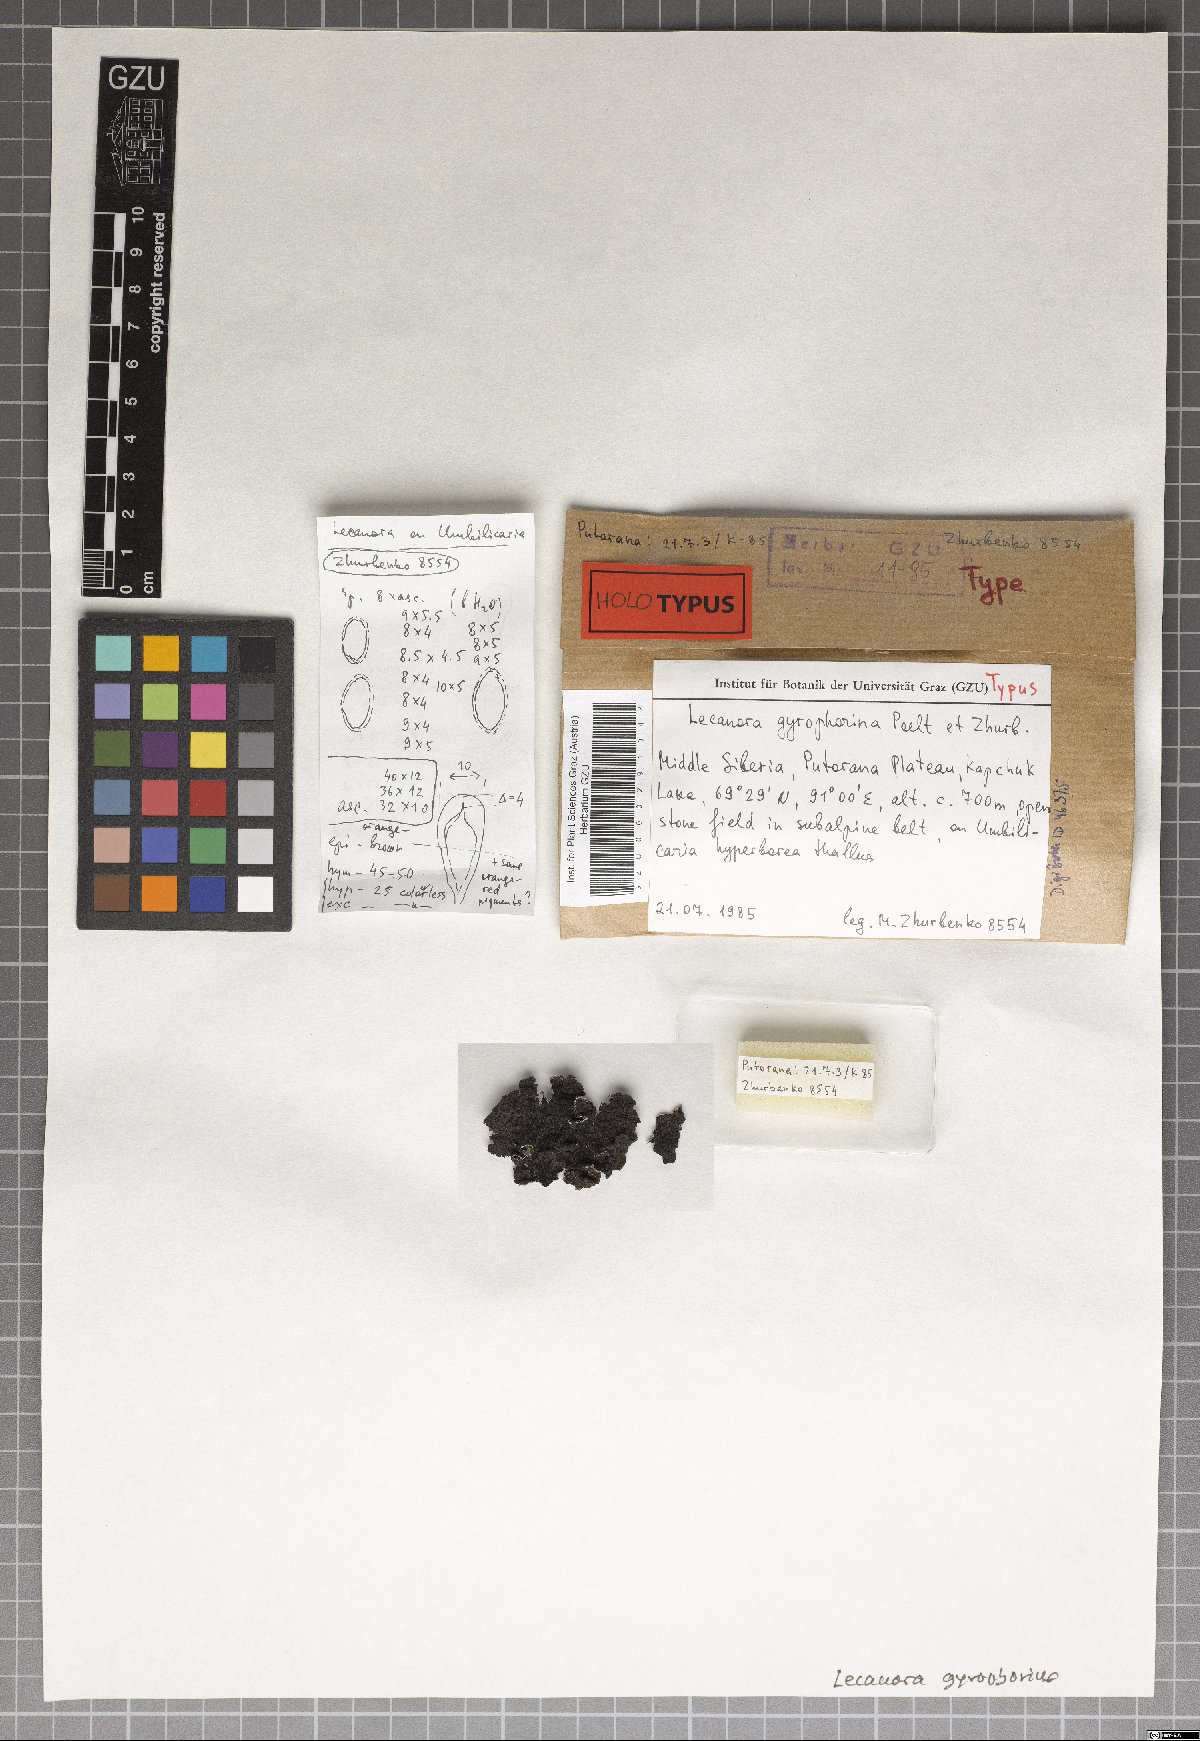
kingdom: Fungi
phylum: Ascomycota
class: Lecanoromycetes
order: Lecanorales
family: Lecanoraceae
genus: Protoparmeliopsis
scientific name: Protoparmeliopsis gyrophorica
